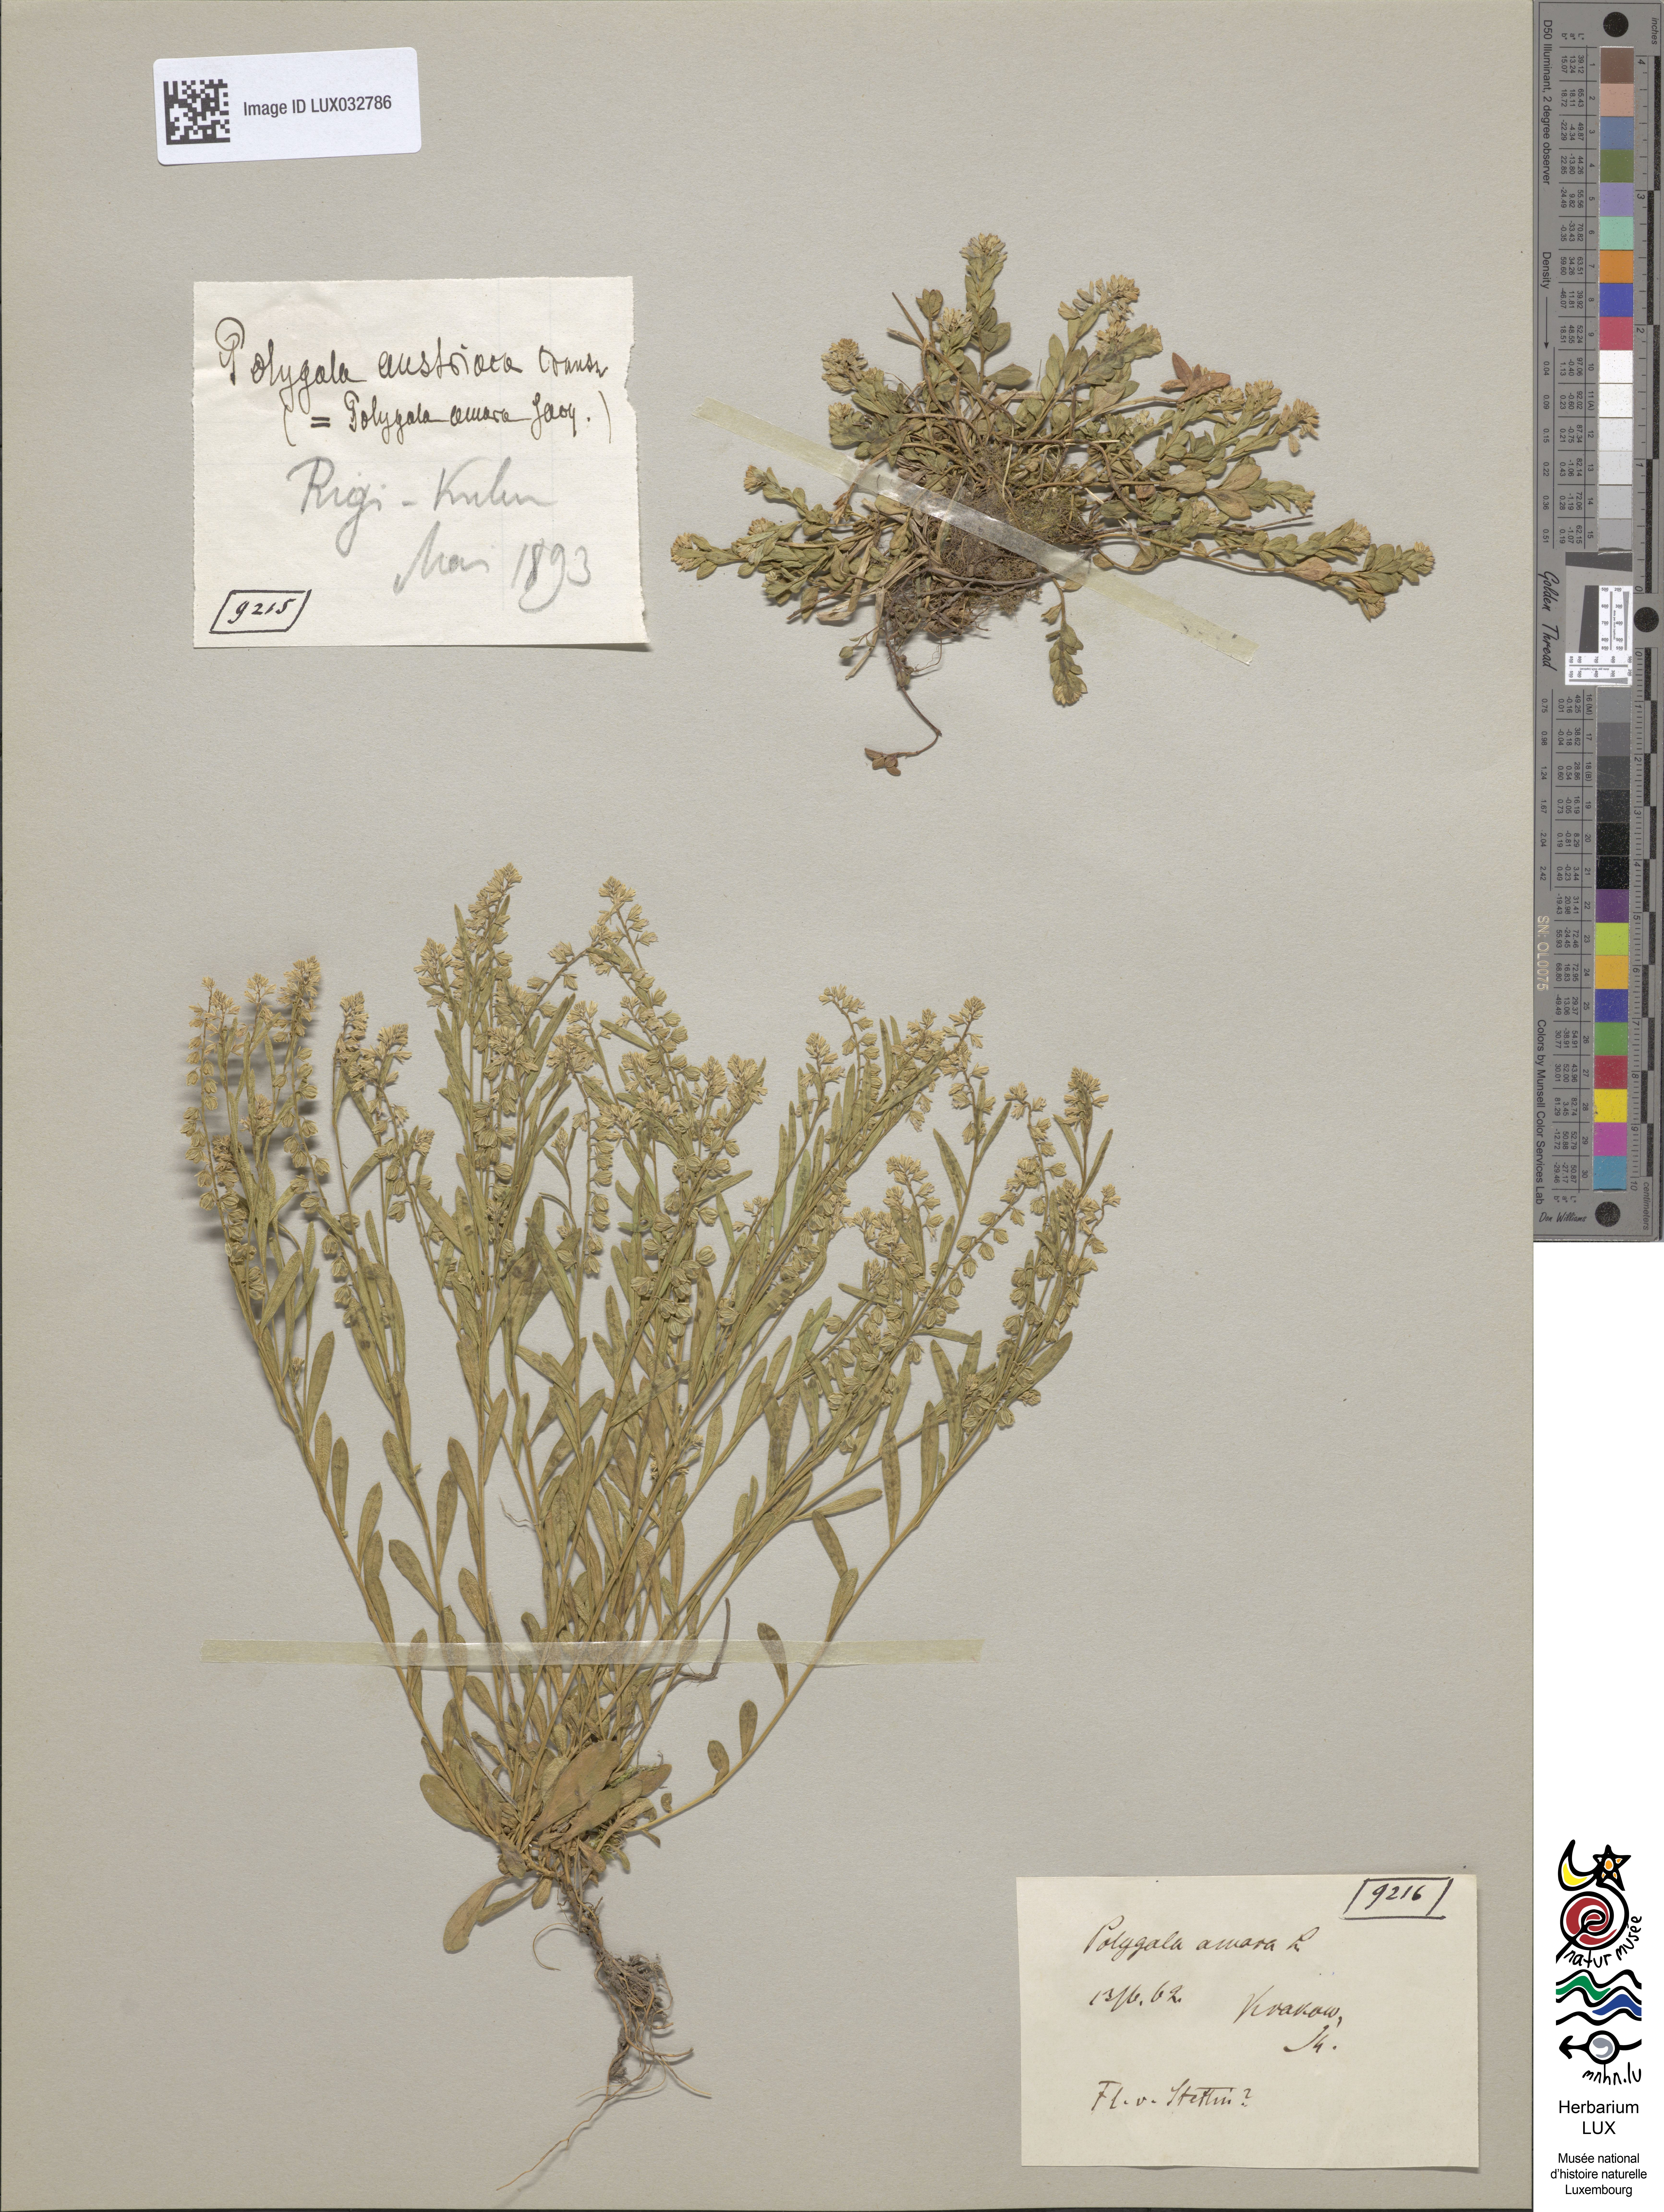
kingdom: Plantae
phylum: Tracheophyta
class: Magnoliopsida
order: Fabales
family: Polygalaceae
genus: Polygala
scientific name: Polygala amarella
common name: Dwarf milkwort
